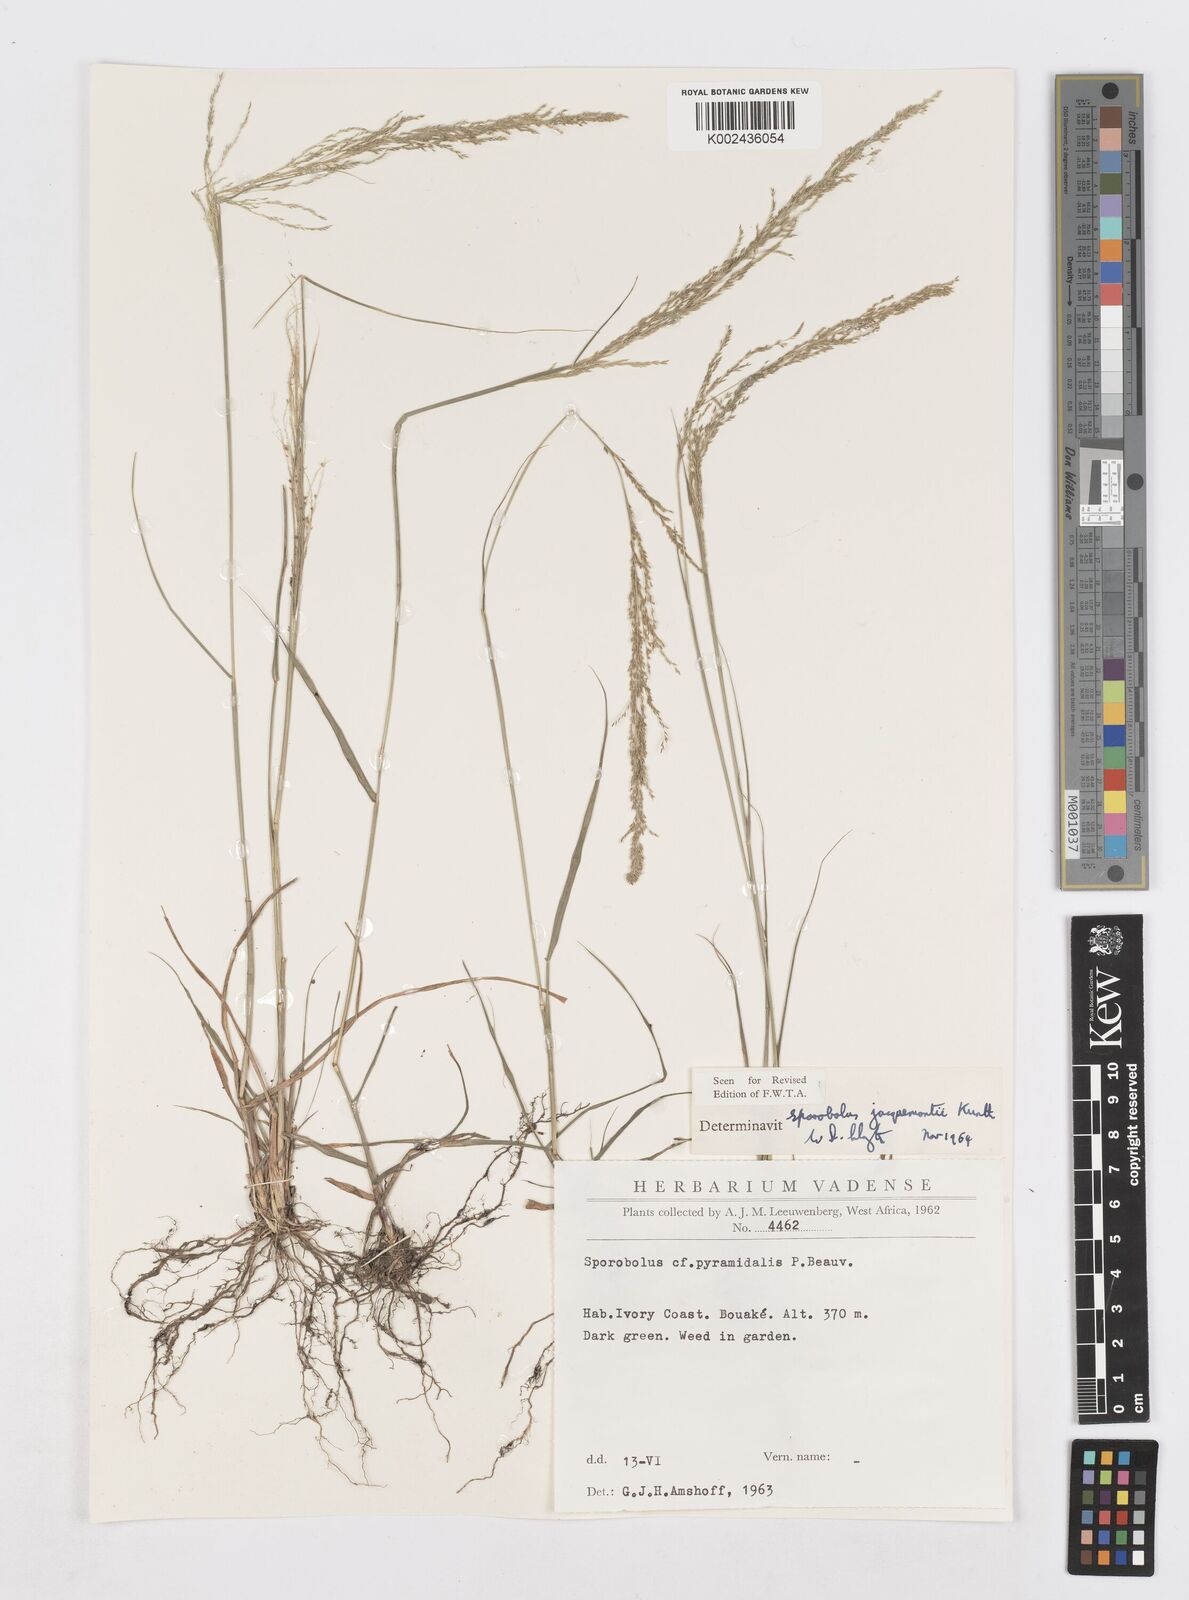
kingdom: Plantae
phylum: Tracheophyta
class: Liliopsida
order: Poales
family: Poaceae
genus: Sporobolus
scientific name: Sporobolus pyramidalis
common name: West indian dropseed
